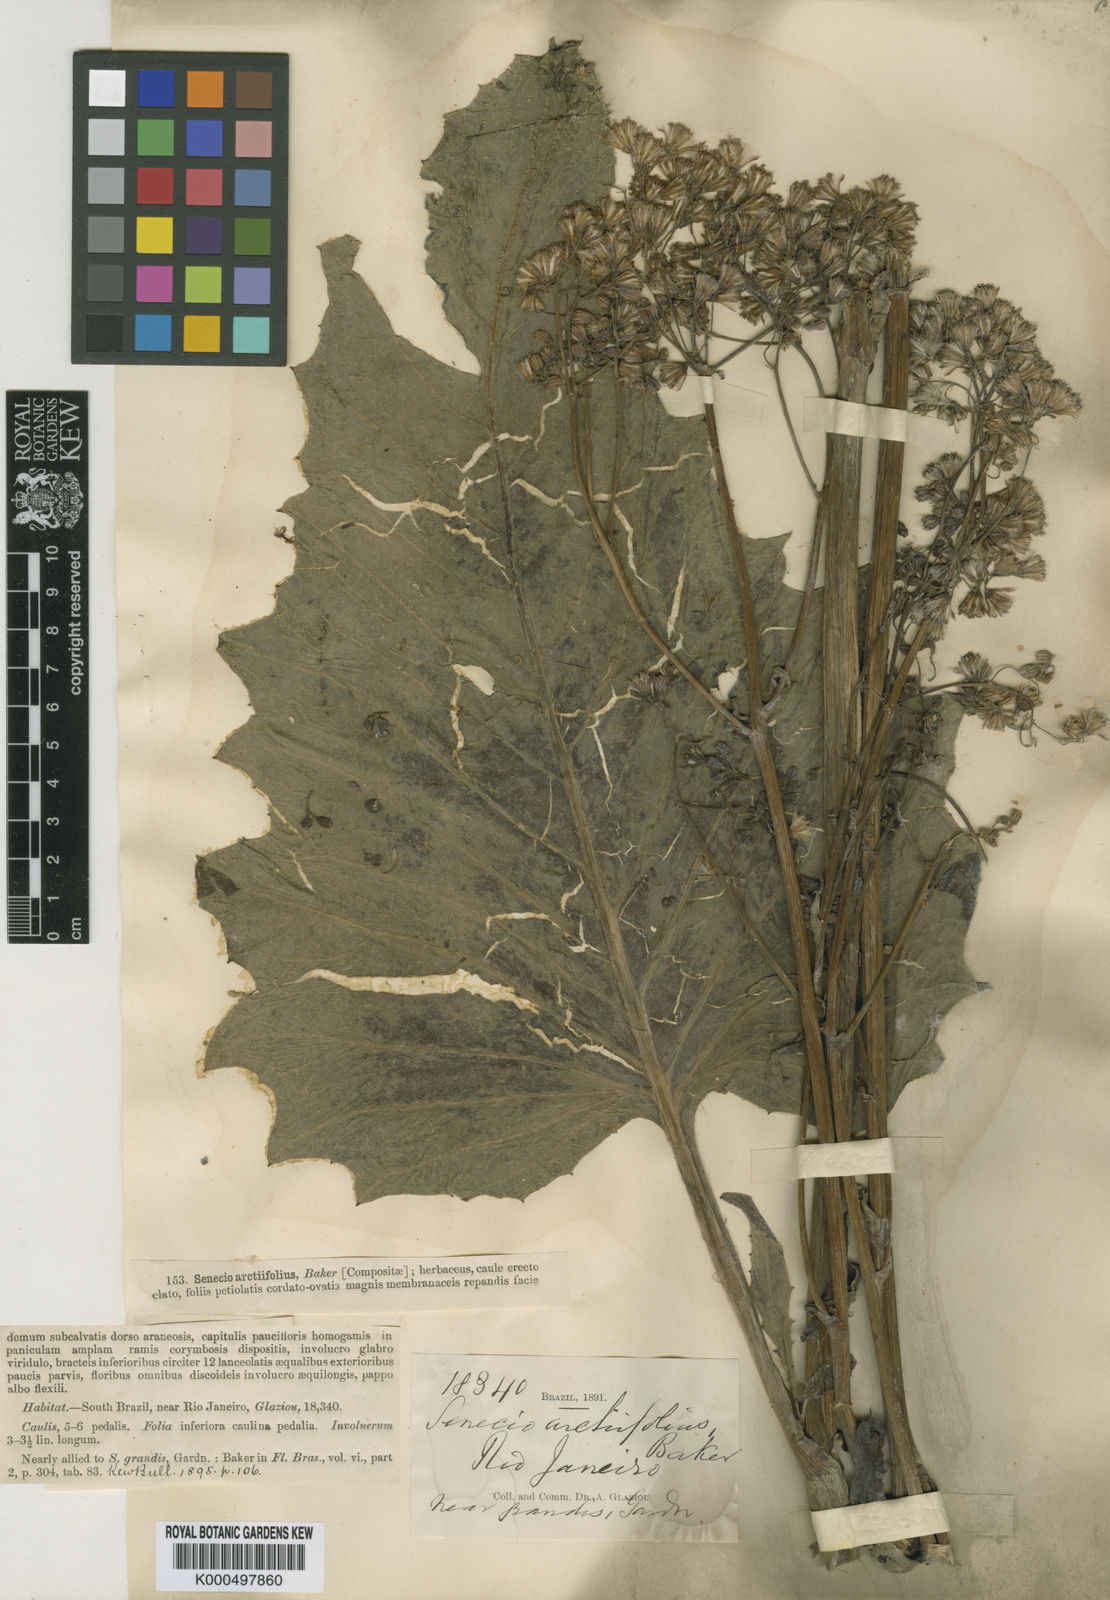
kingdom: Plantae
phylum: Tracheophyta
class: Magnoliopsida
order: Asterales
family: Asteraceae
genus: Senecio
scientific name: Senecio grandis
